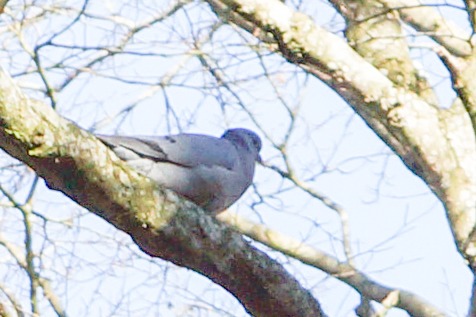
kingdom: Animalia
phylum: Chordata
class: Aves
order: Columbiformes
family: Columbidae
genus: Columba
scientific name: Columba oenas
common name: Huldue
